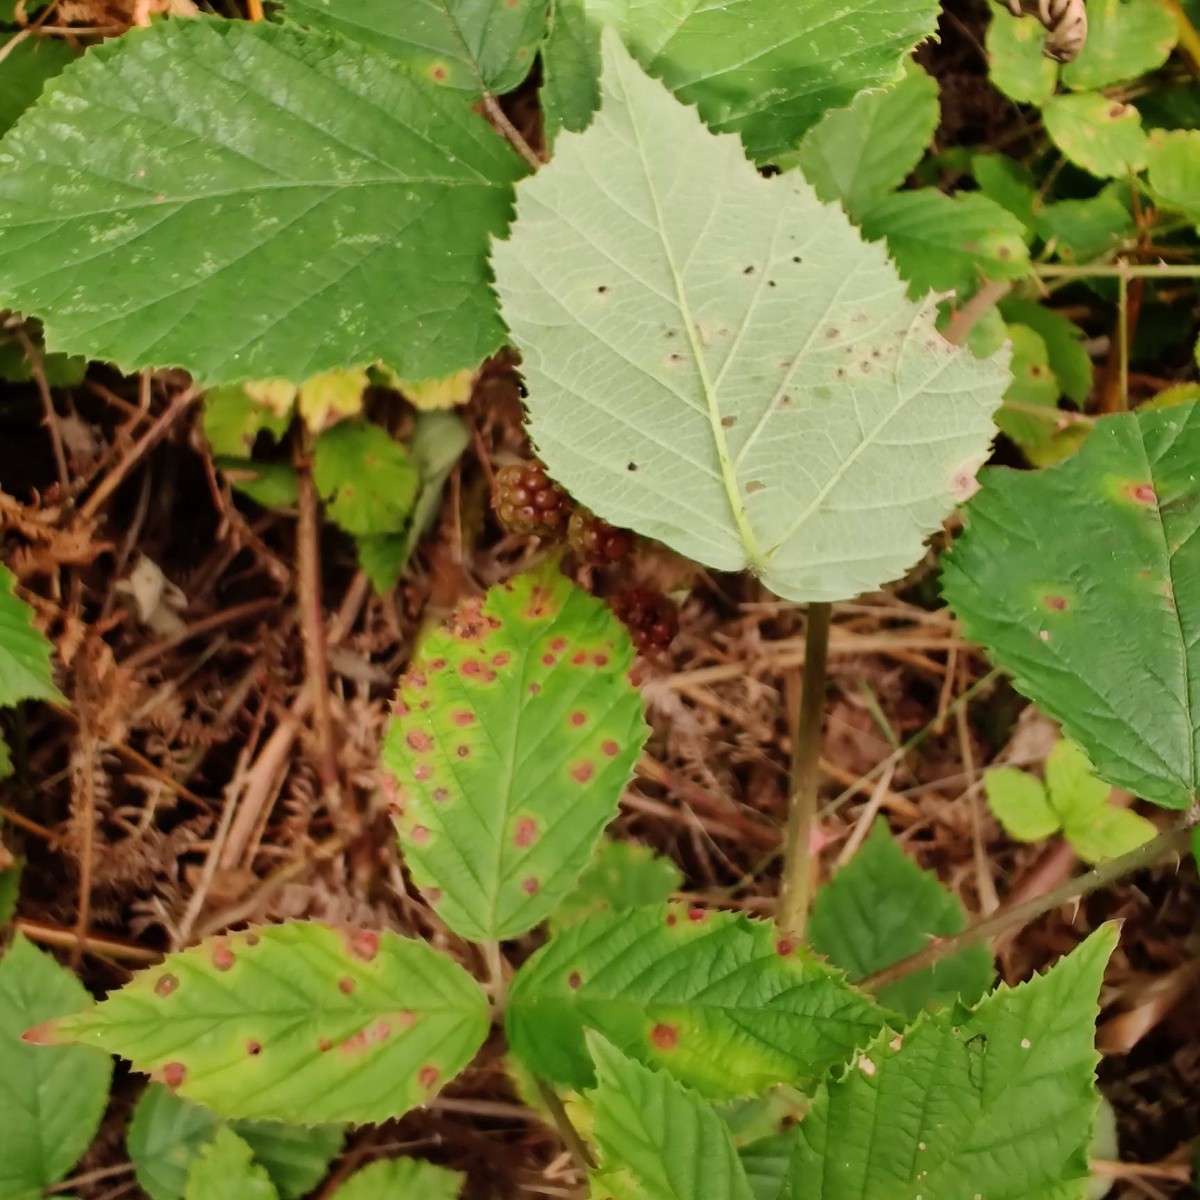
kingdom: Fungi
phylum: Basidiomycota
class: Pucciniomycetes
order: Pucciniales
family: Phragmidiaceae
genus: Phragmidium
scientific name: Phragmidium violaceum
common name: violet flercellerust
